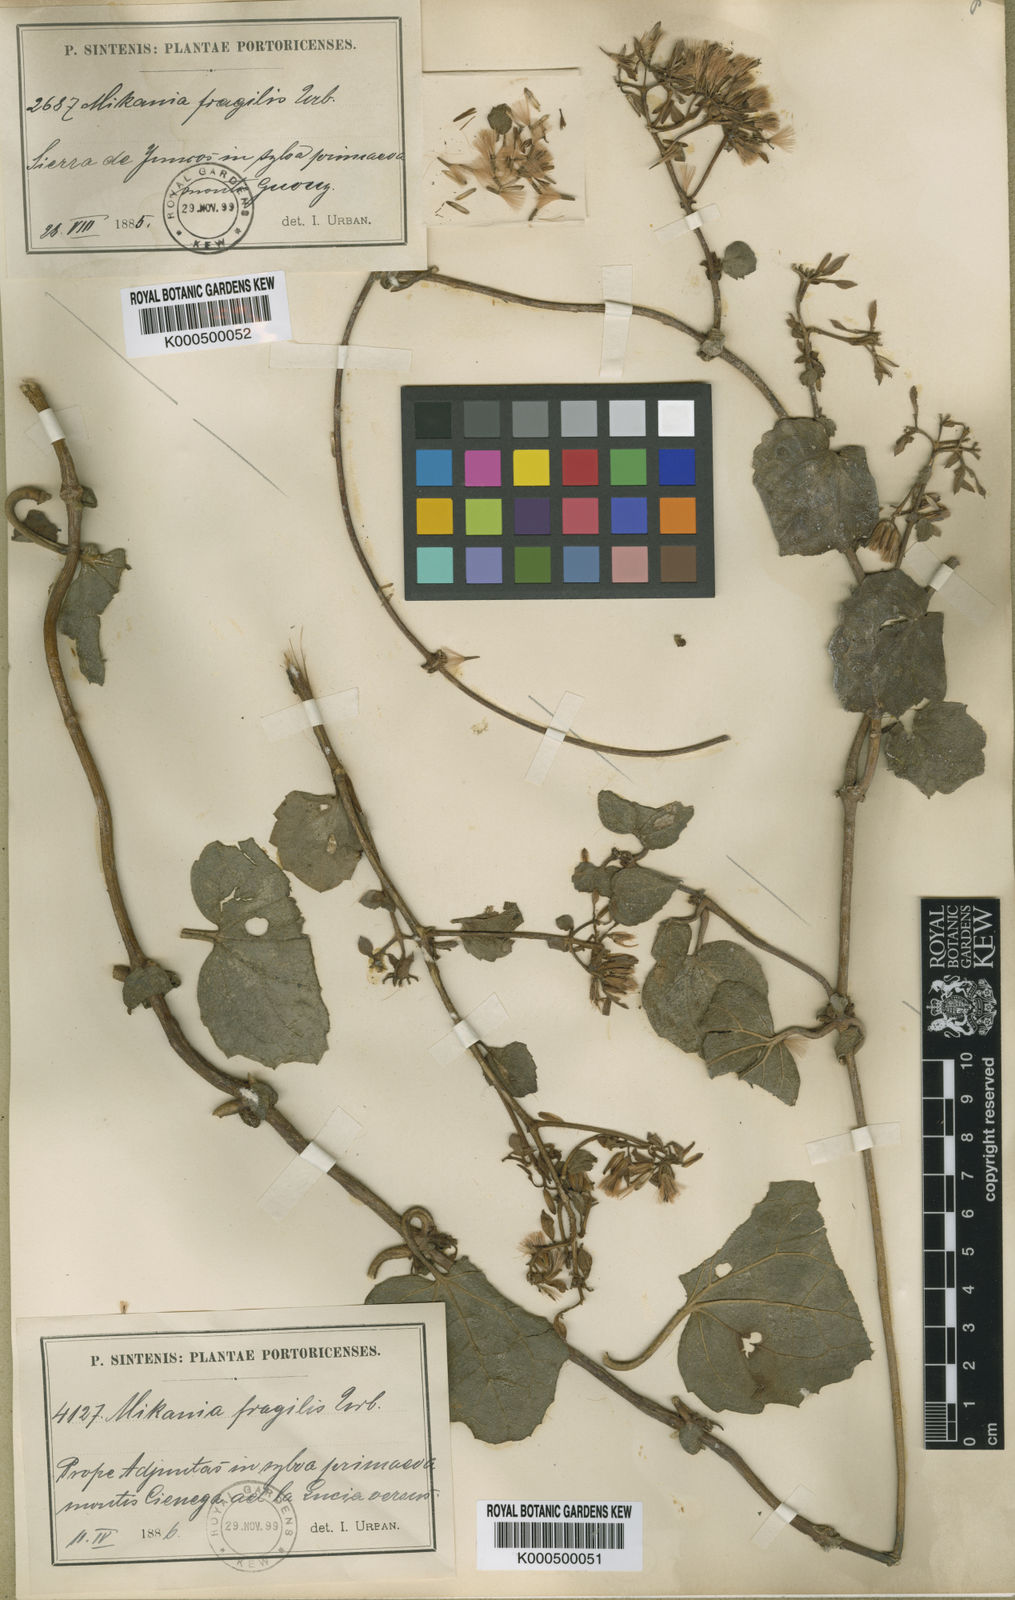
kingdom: Plantae
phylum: Tracheophyta
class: Magnoliopsida
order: Asterales
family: Asteraceae
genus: Mikania
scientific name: Mikania fragilis
